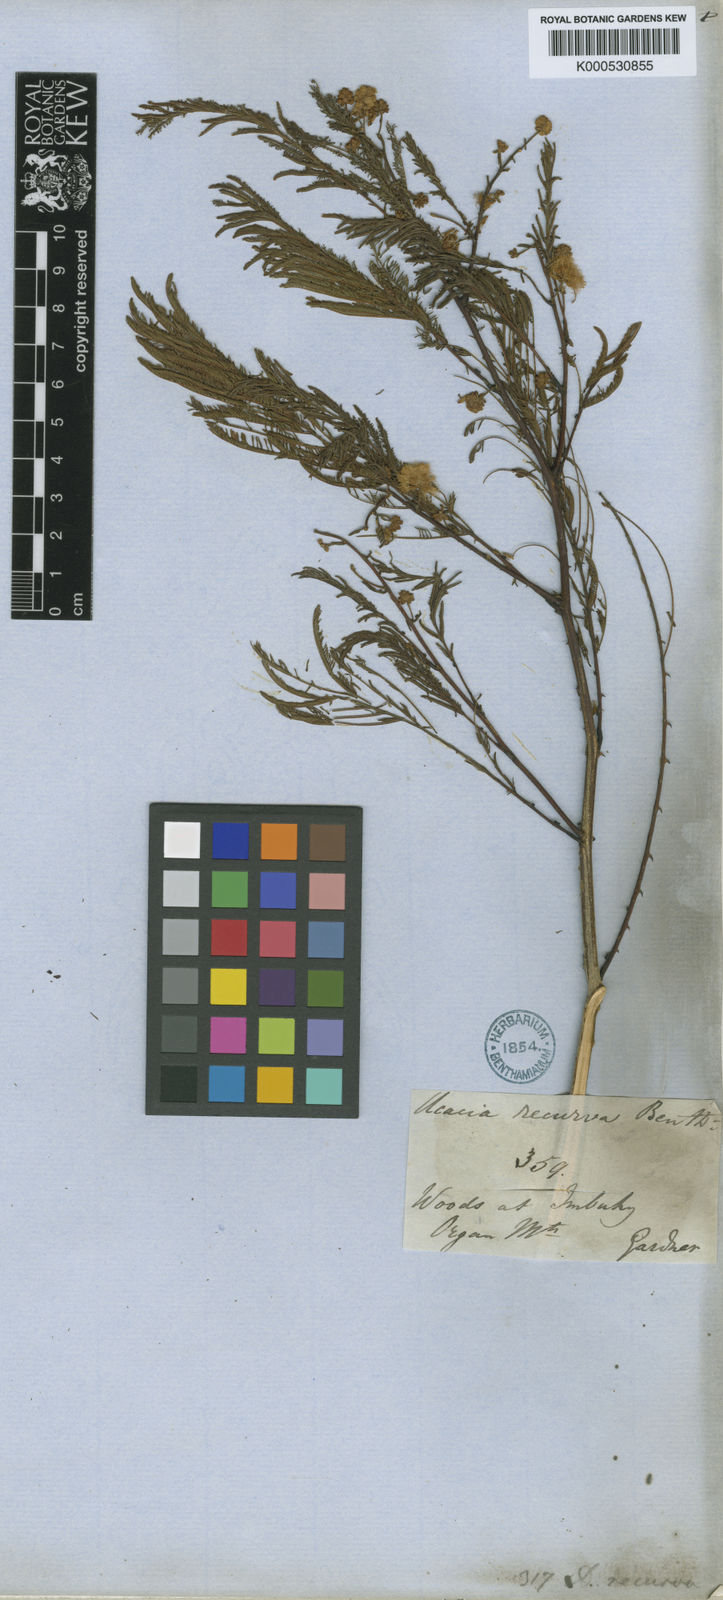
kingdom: Plantae
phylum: Tracheophyta
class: Magnoliopsida
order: Fabales
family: Fabaceae
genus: Senegalia
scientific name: Senegalia riparia
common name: Catch-and-keep
